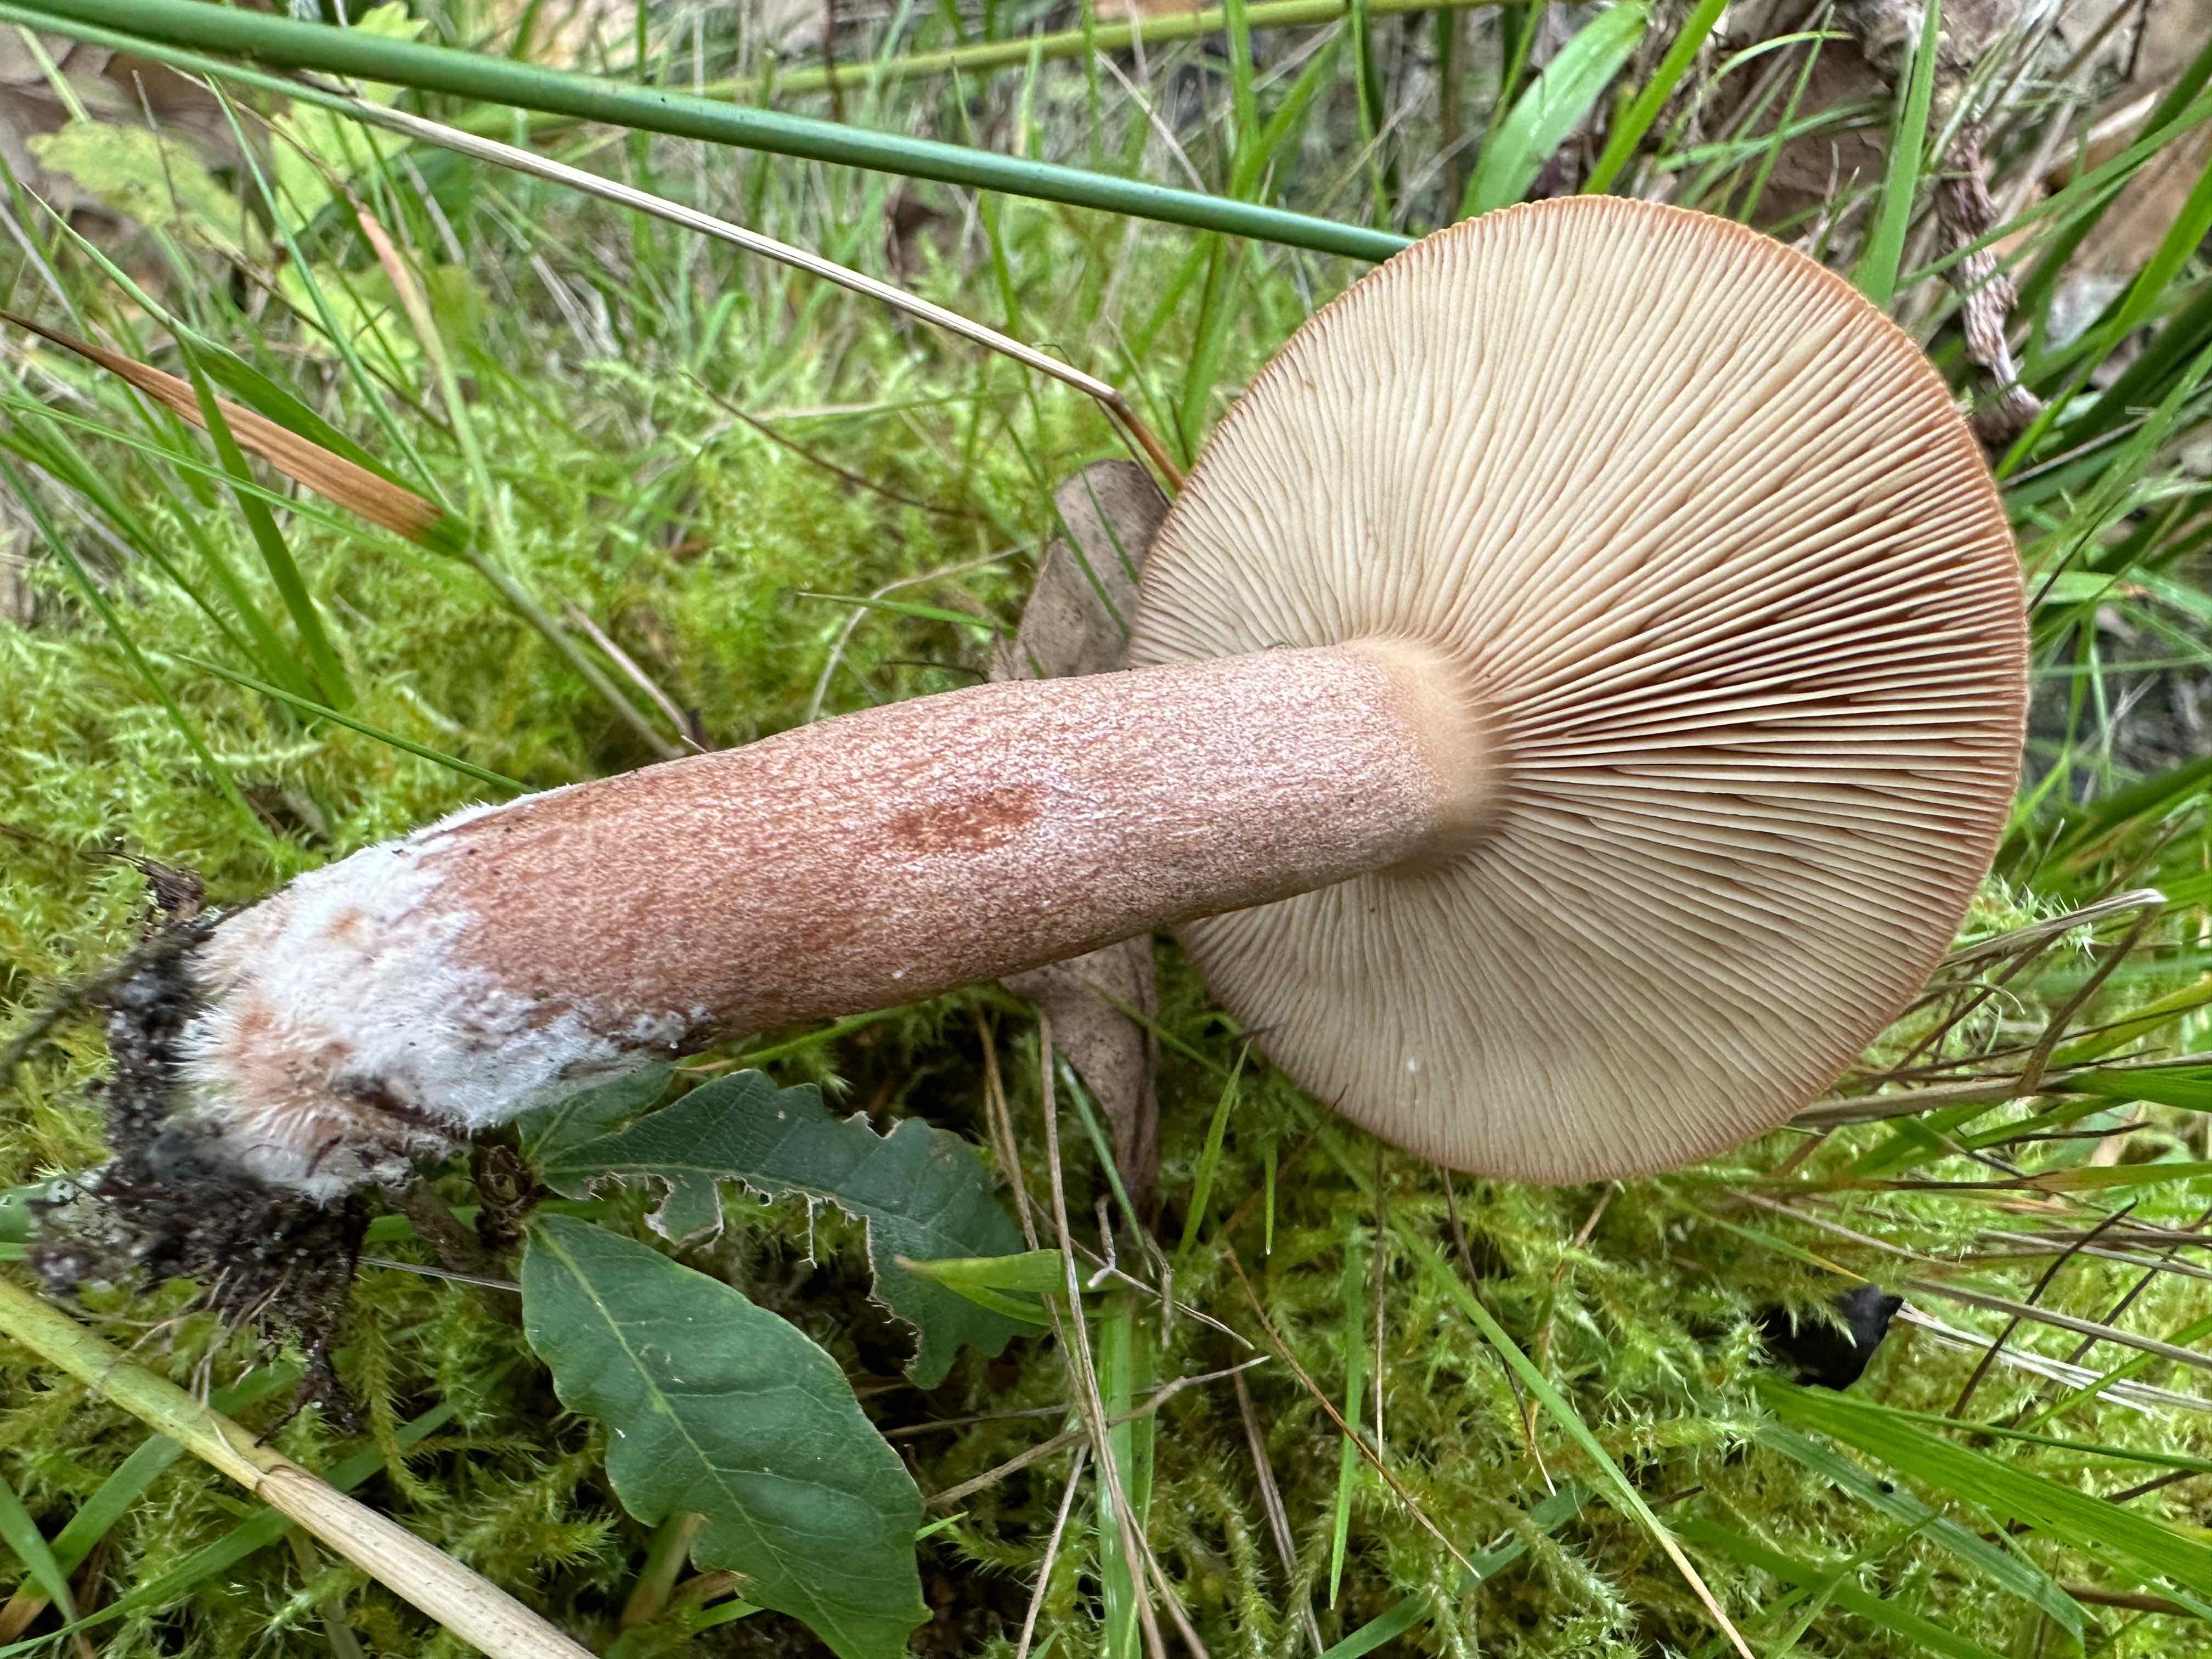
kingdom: Fungi
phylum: Basidiomycota
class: Agaricomycetes
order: Russulales
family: Russulaceae
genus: Lactarius
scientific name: Lactarius quietus
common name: ege-mælkehat
